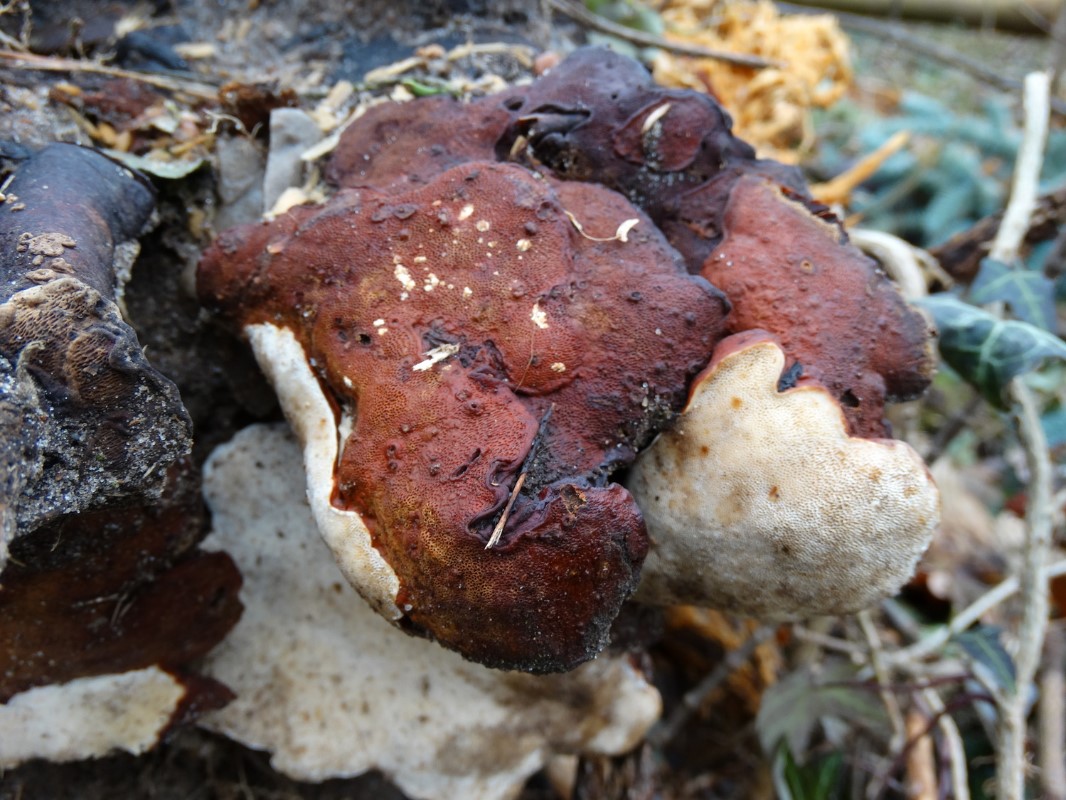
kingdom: Fungi
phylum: Basidiomycota
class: Agaricomycetes
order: Russulales
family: Bondarzewiaceae
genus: Heterobasidion
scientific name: Heterobasidion annosum
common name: almindelig rodfordærver
